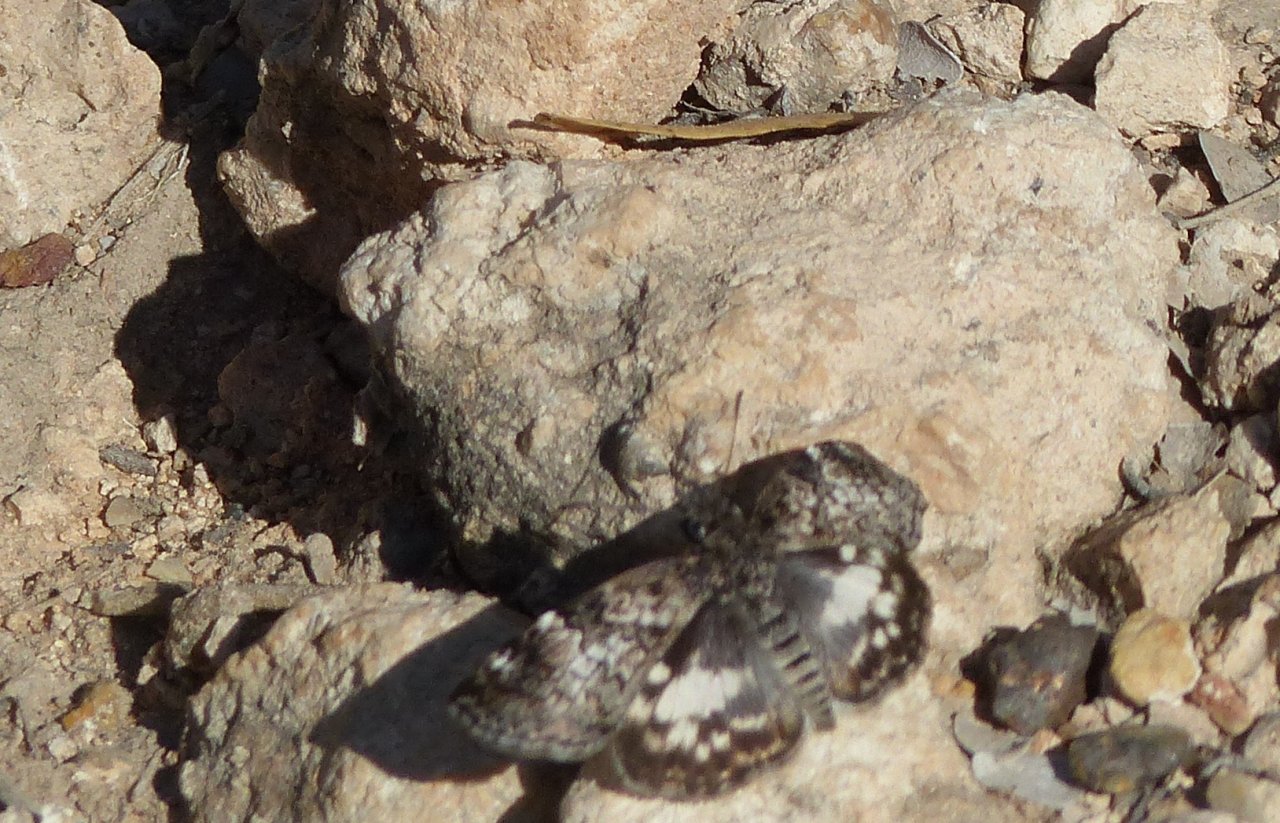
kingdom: Animalia
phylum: Arthropoda
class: Insecta
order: Lepidoptera
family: Hesperiidae
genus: Chiomara
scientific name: Chiomara asychis
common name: White-patched Skipper
